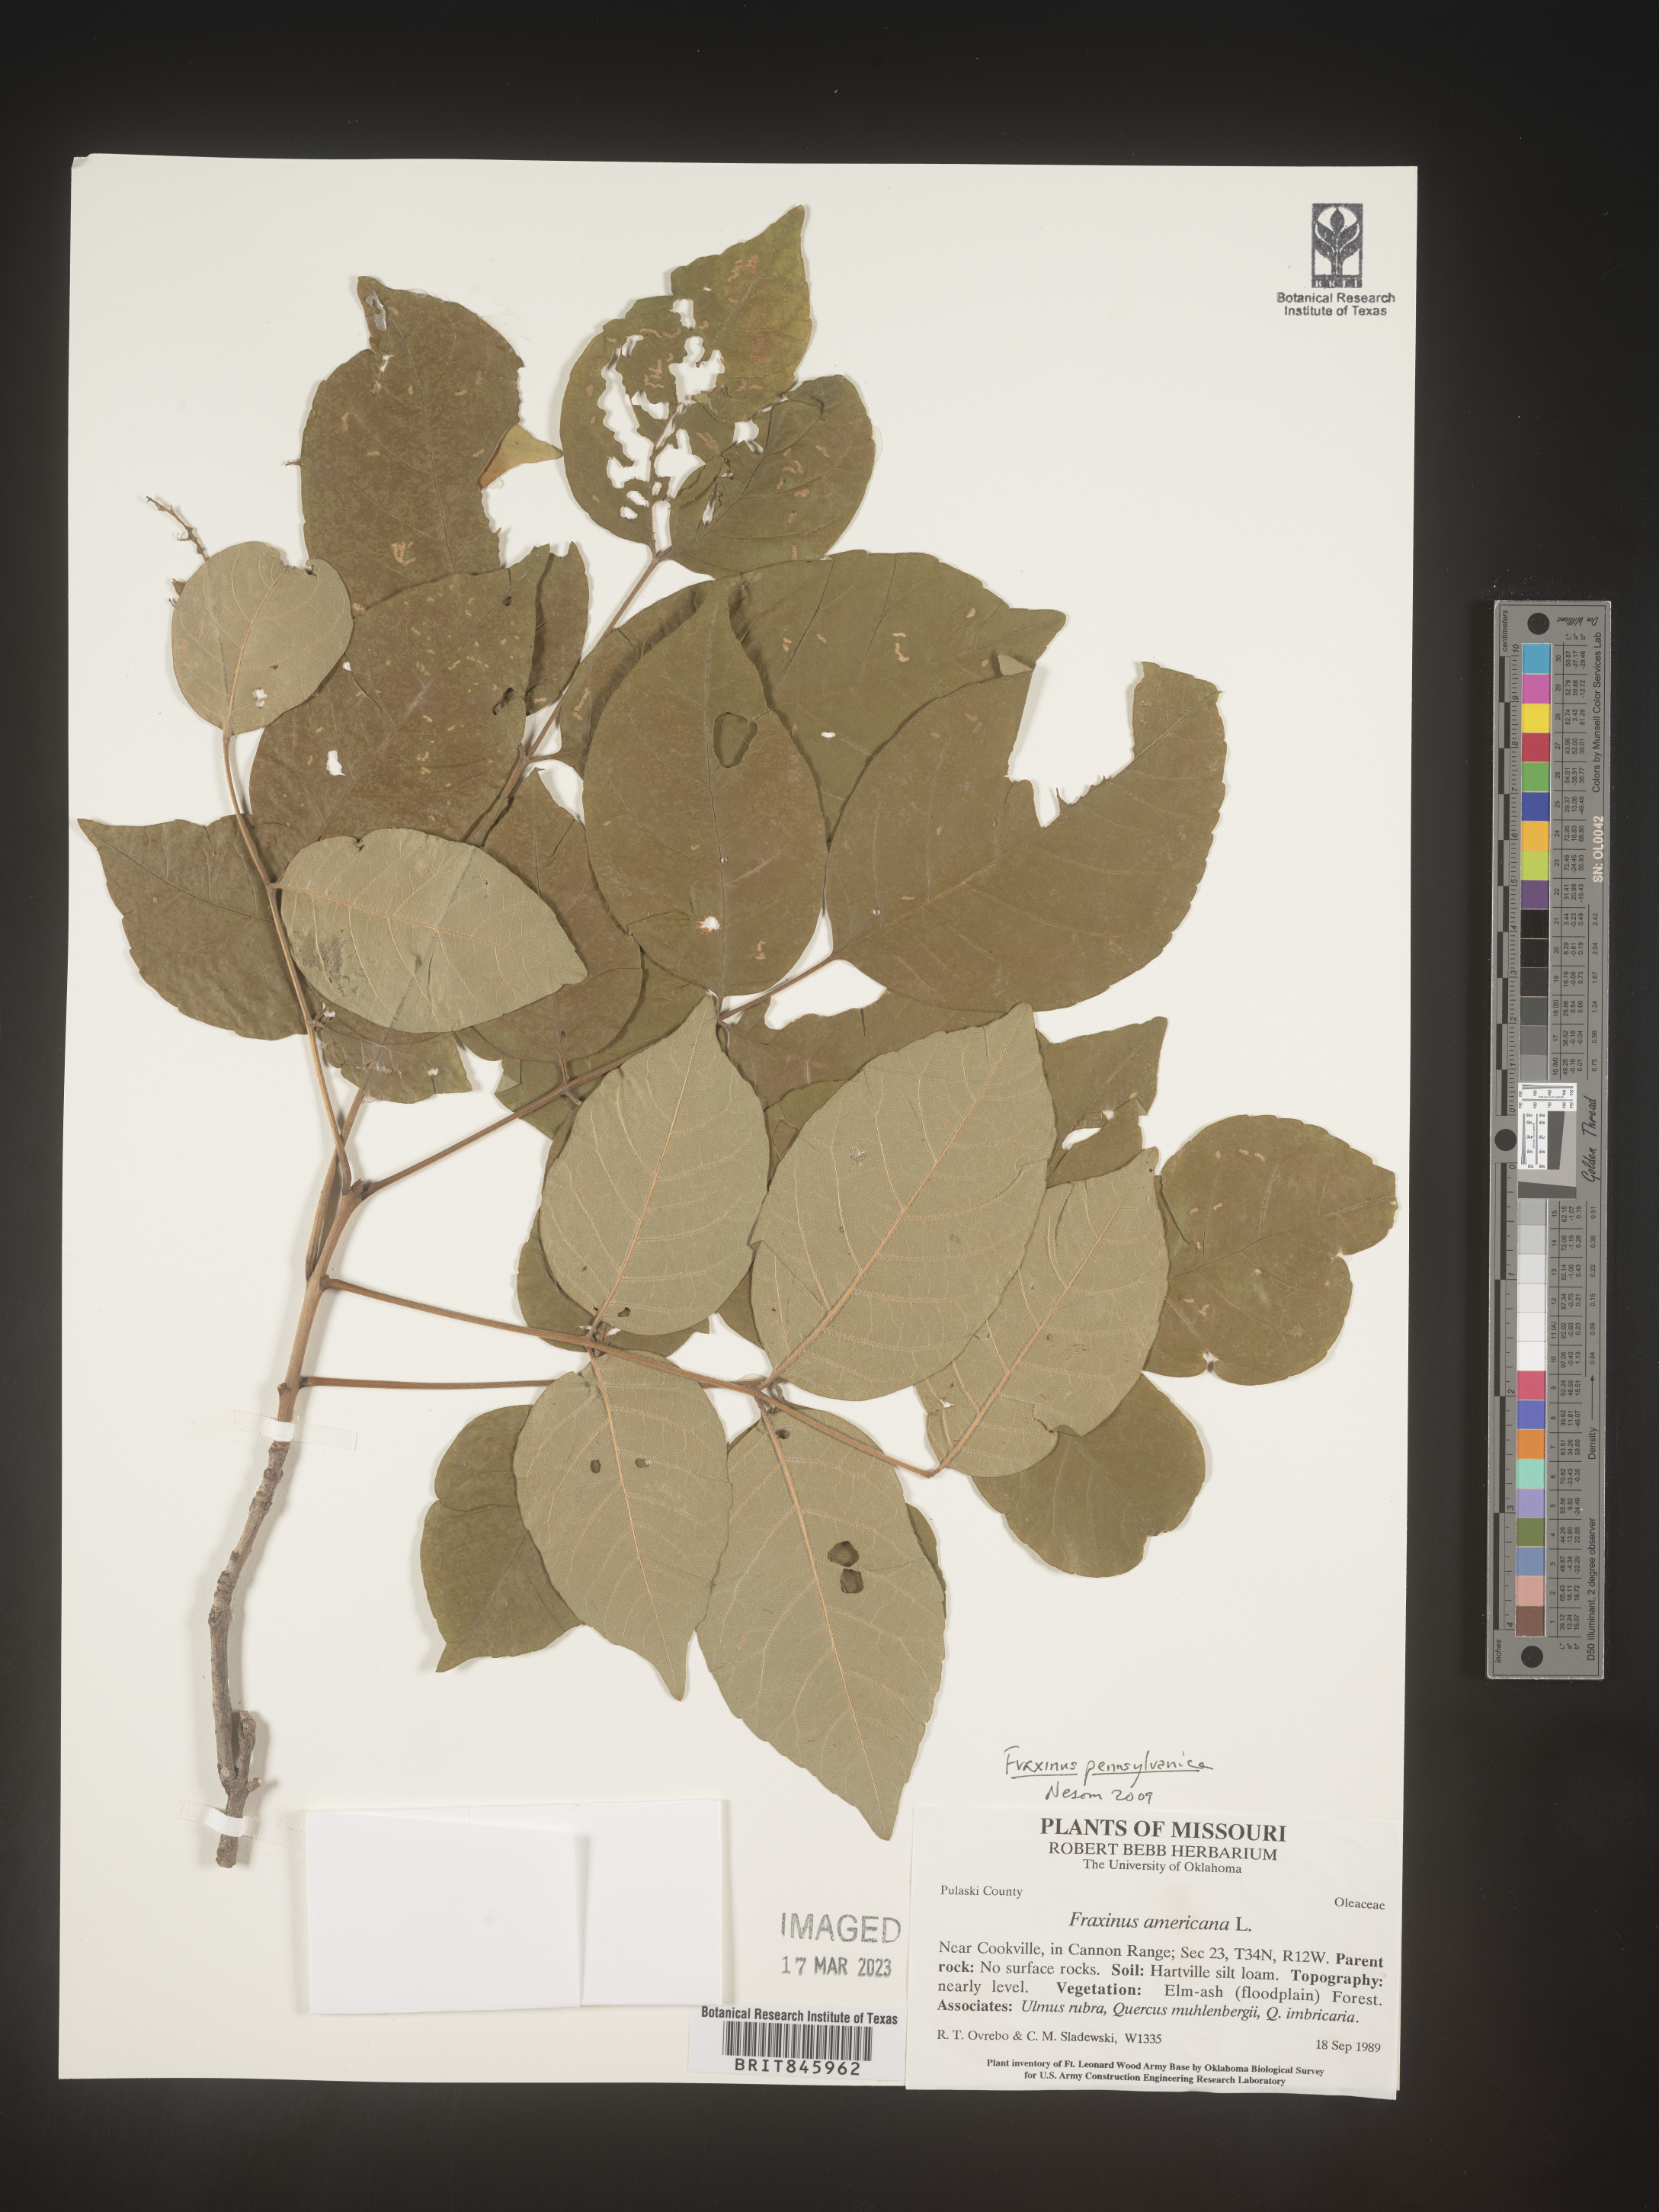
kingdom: Plantae
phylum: Tracheophyta
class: Magnoliopsida
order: Lamiales
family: Oleaceae
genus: Fraxinus
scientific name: Fraxinus
